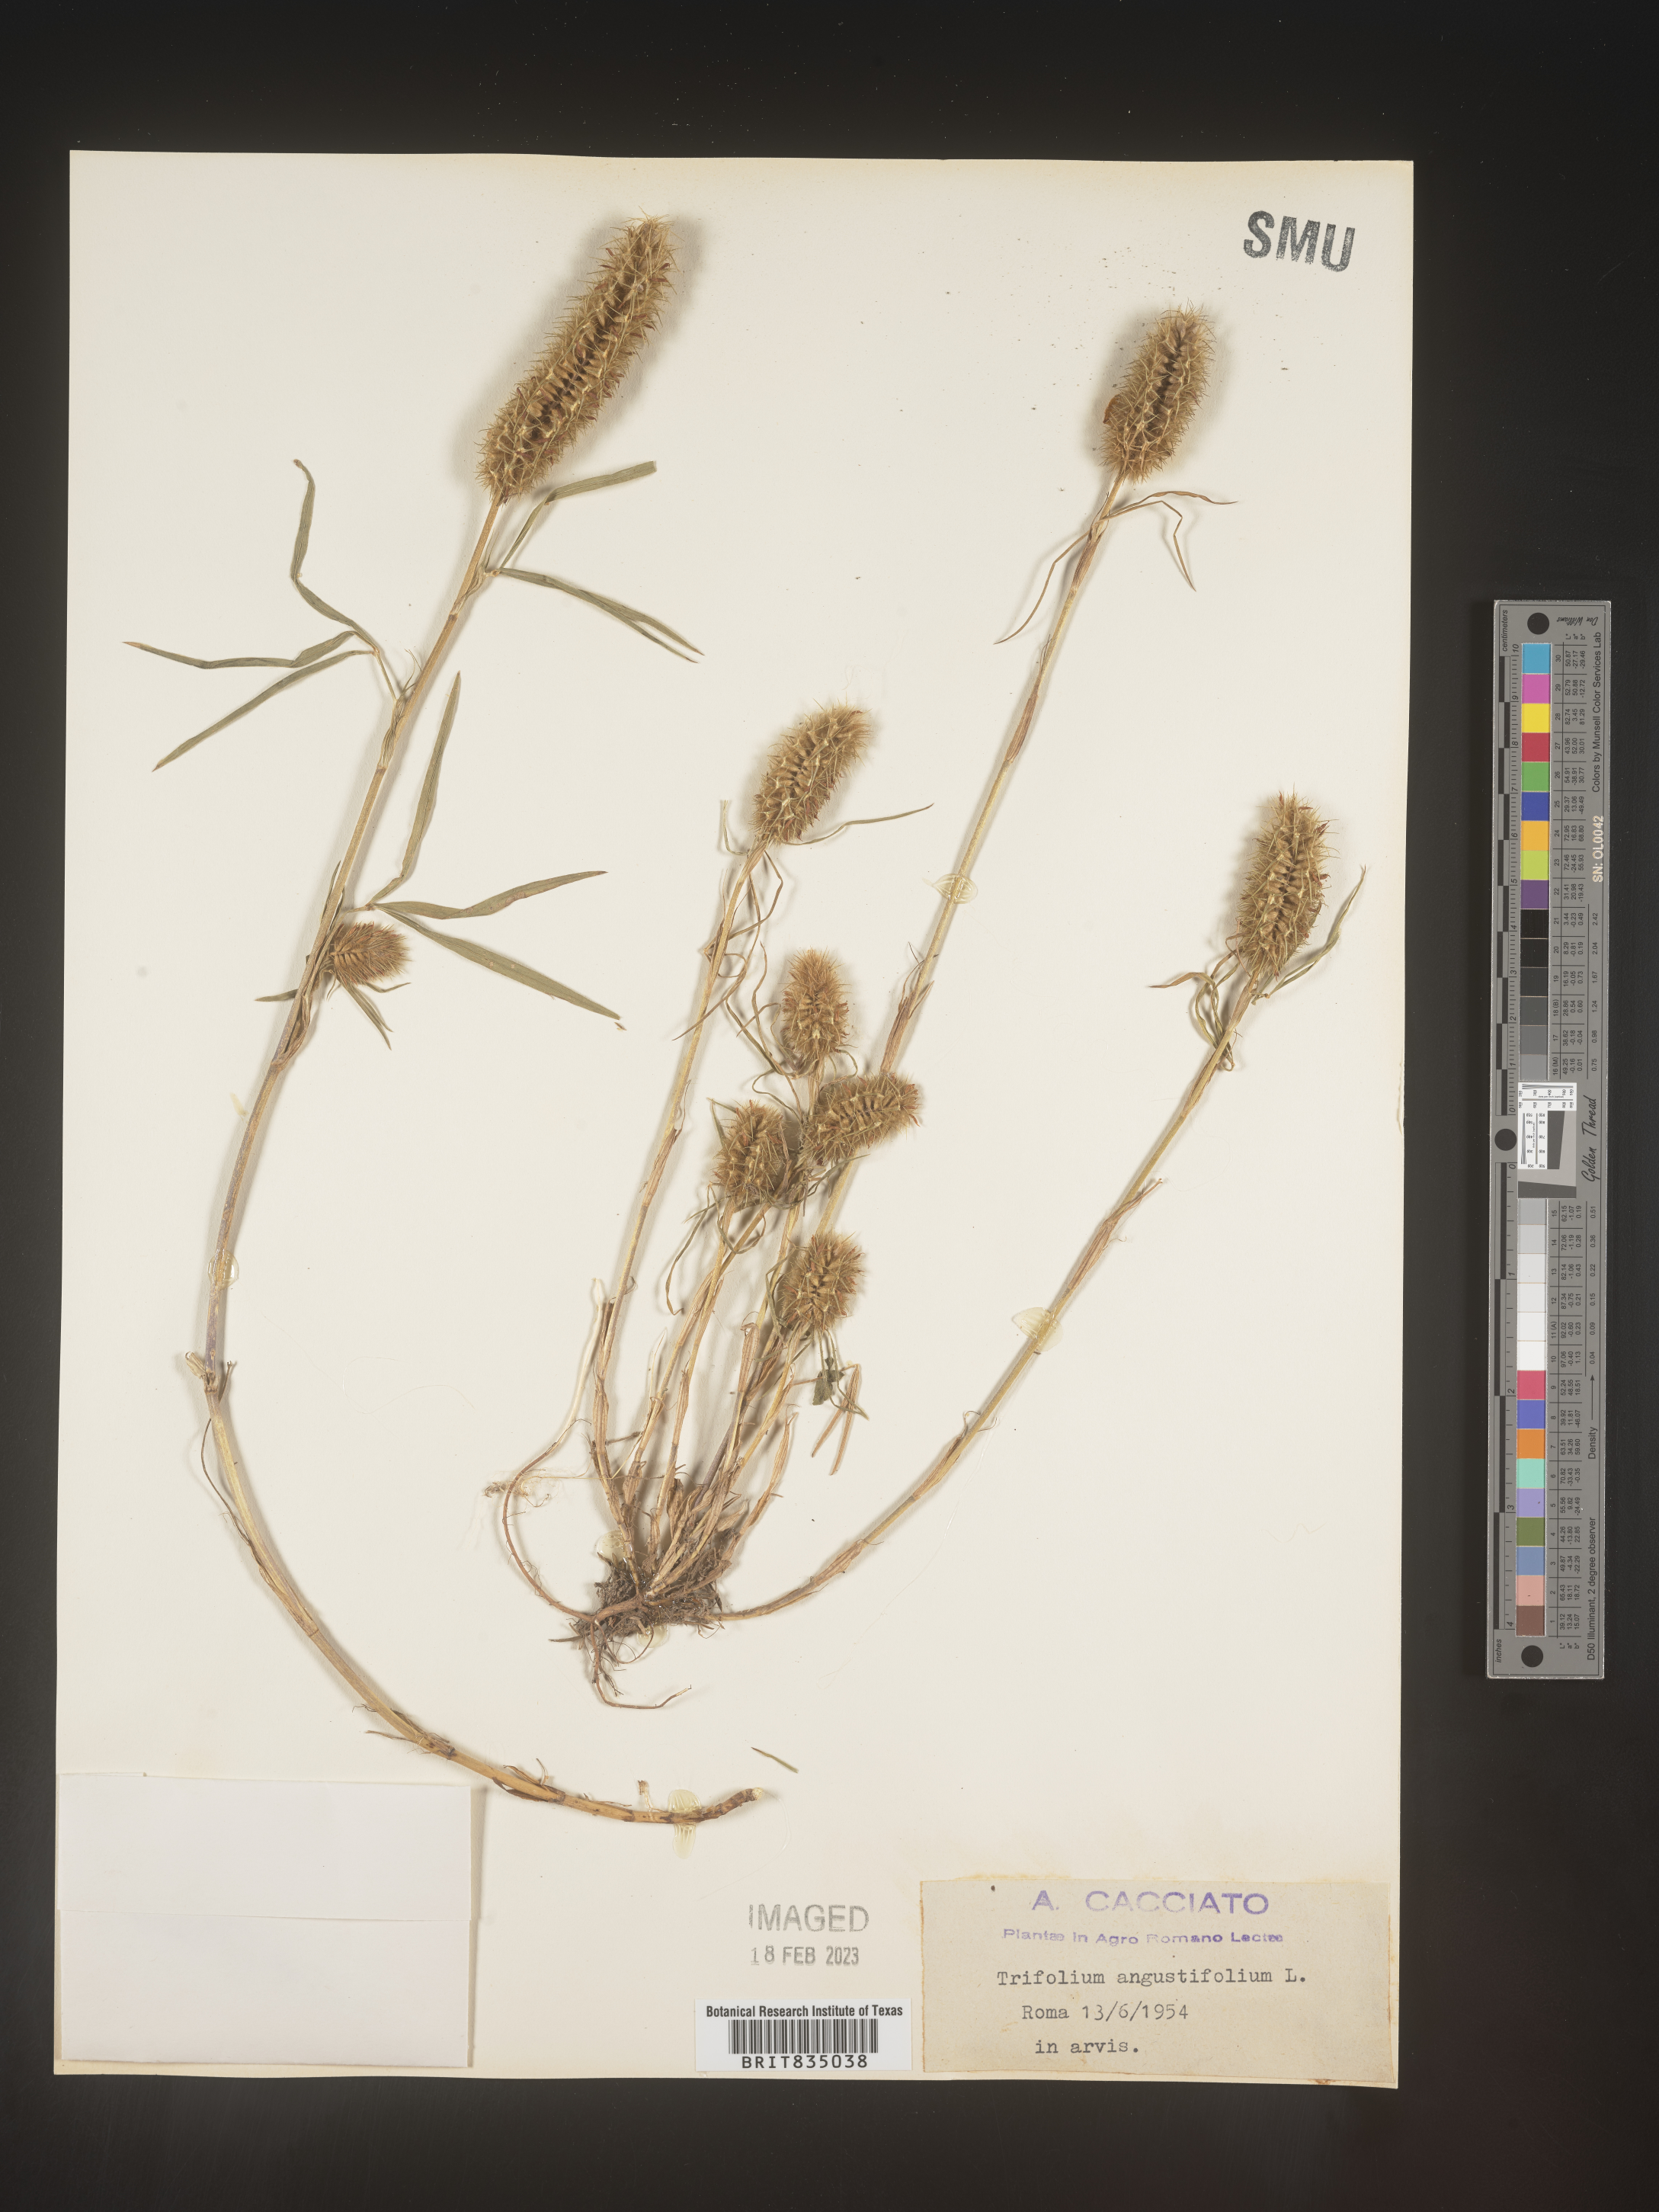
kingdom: Plantae
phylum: Tracheophyta
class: Magnoliopsida
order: Fabales
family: Fabaceae
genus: Trifolium
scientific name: Trifolium
